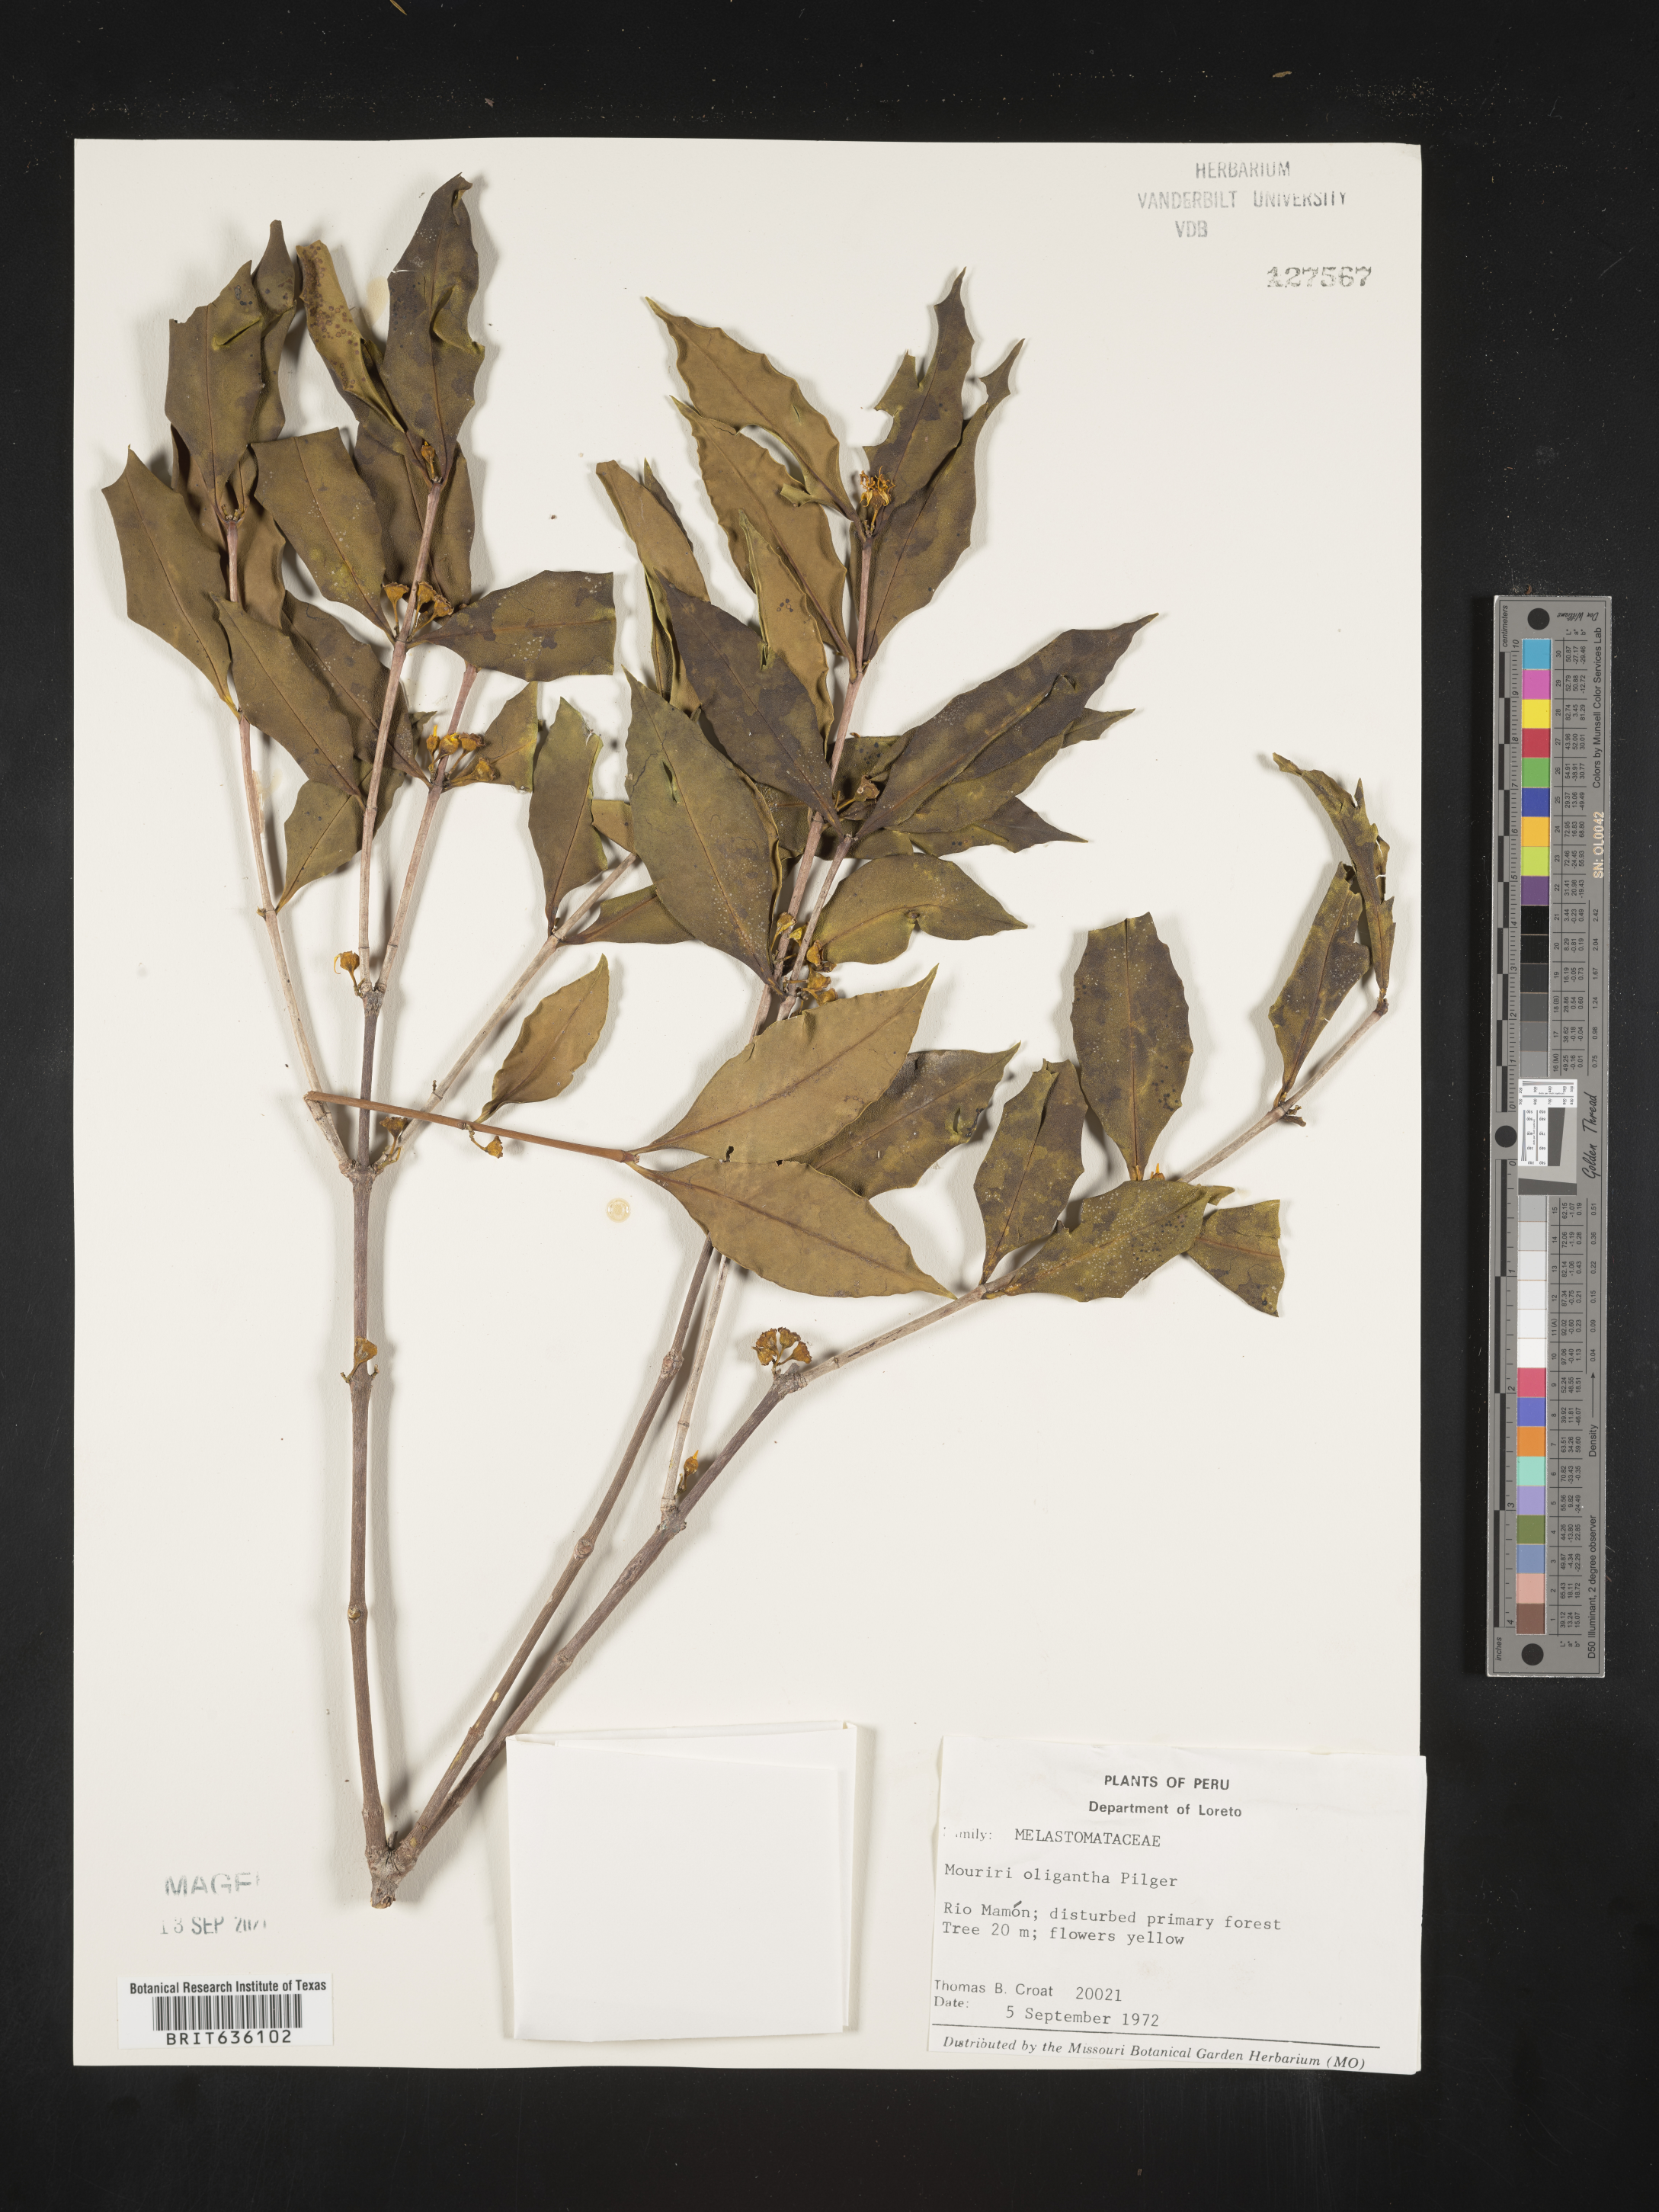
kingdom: Plantae
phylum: Tracheophyta
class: Magnoliopsida
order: Myrtales
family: Melastomataceae
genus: Miconia
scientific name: Miconia
